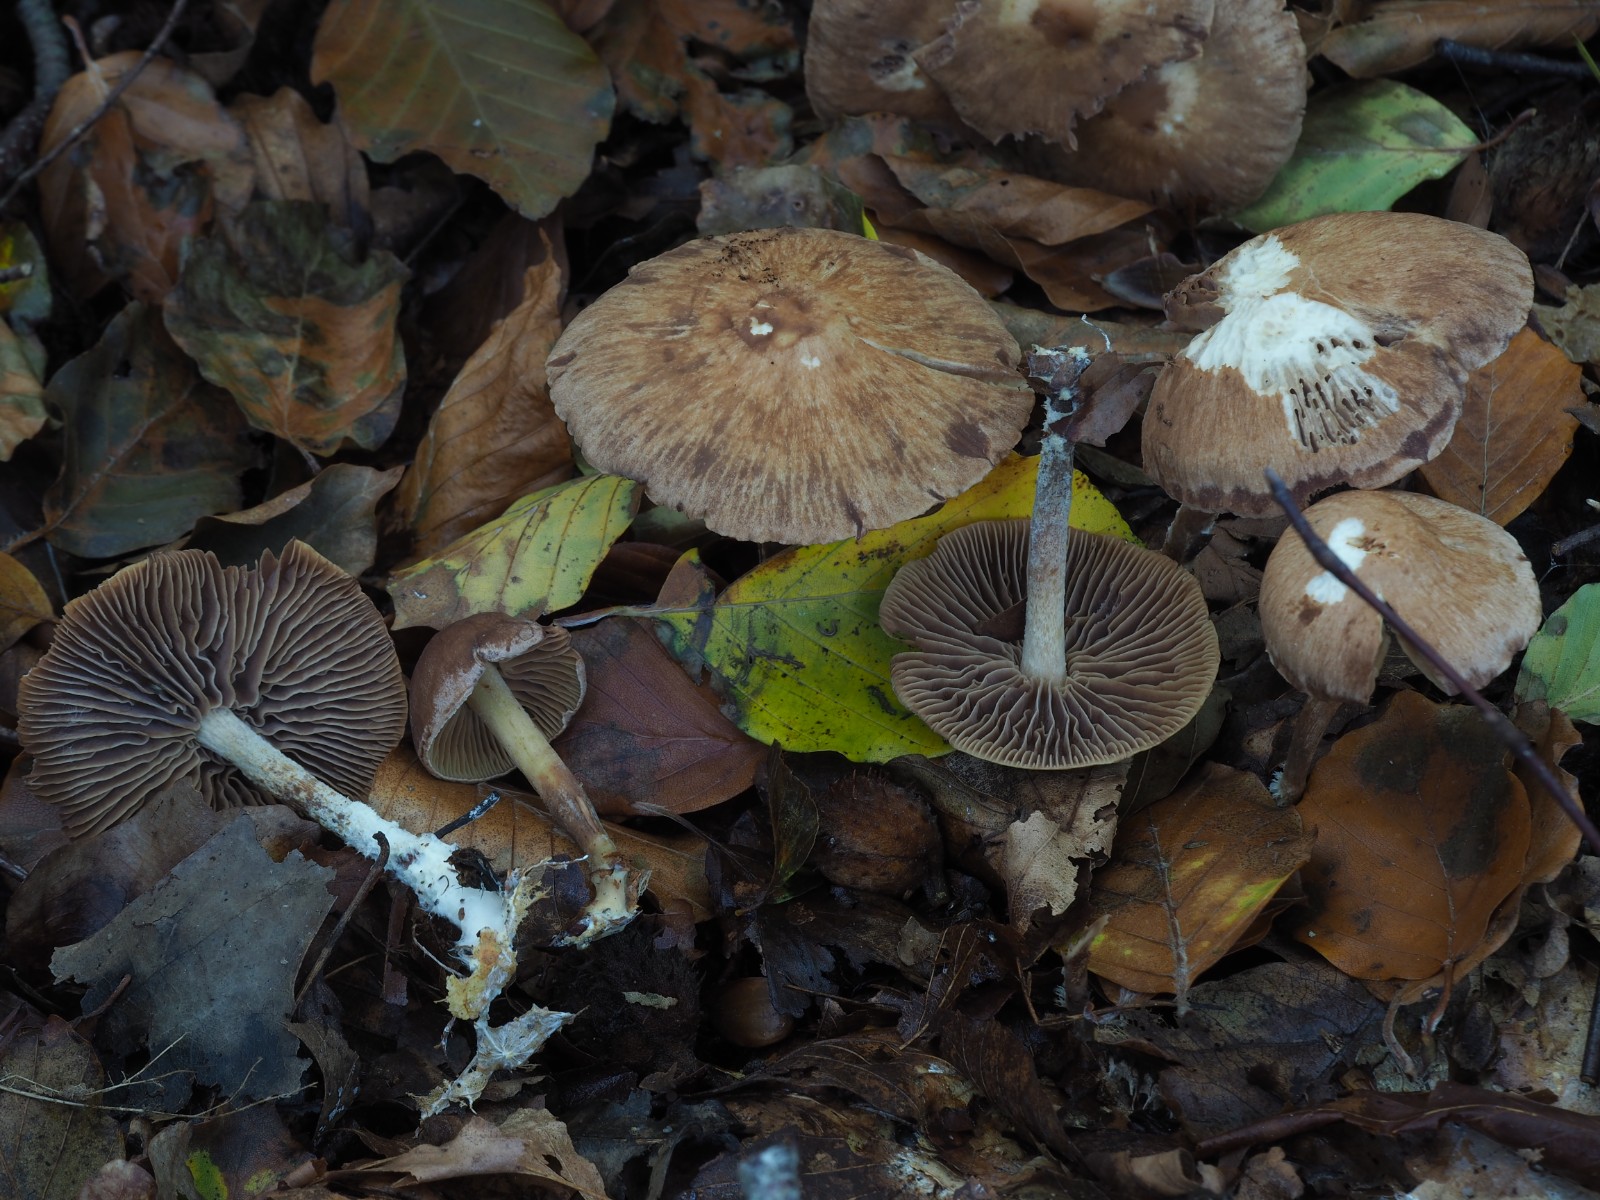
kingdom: Fungi
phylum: Basidiomycota
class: Agaricomycetes
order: Agaricales
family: Omphalotaceae
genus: Collybiopsis
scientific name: Collybiopsis peronata
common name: bestøvlet fladhat
